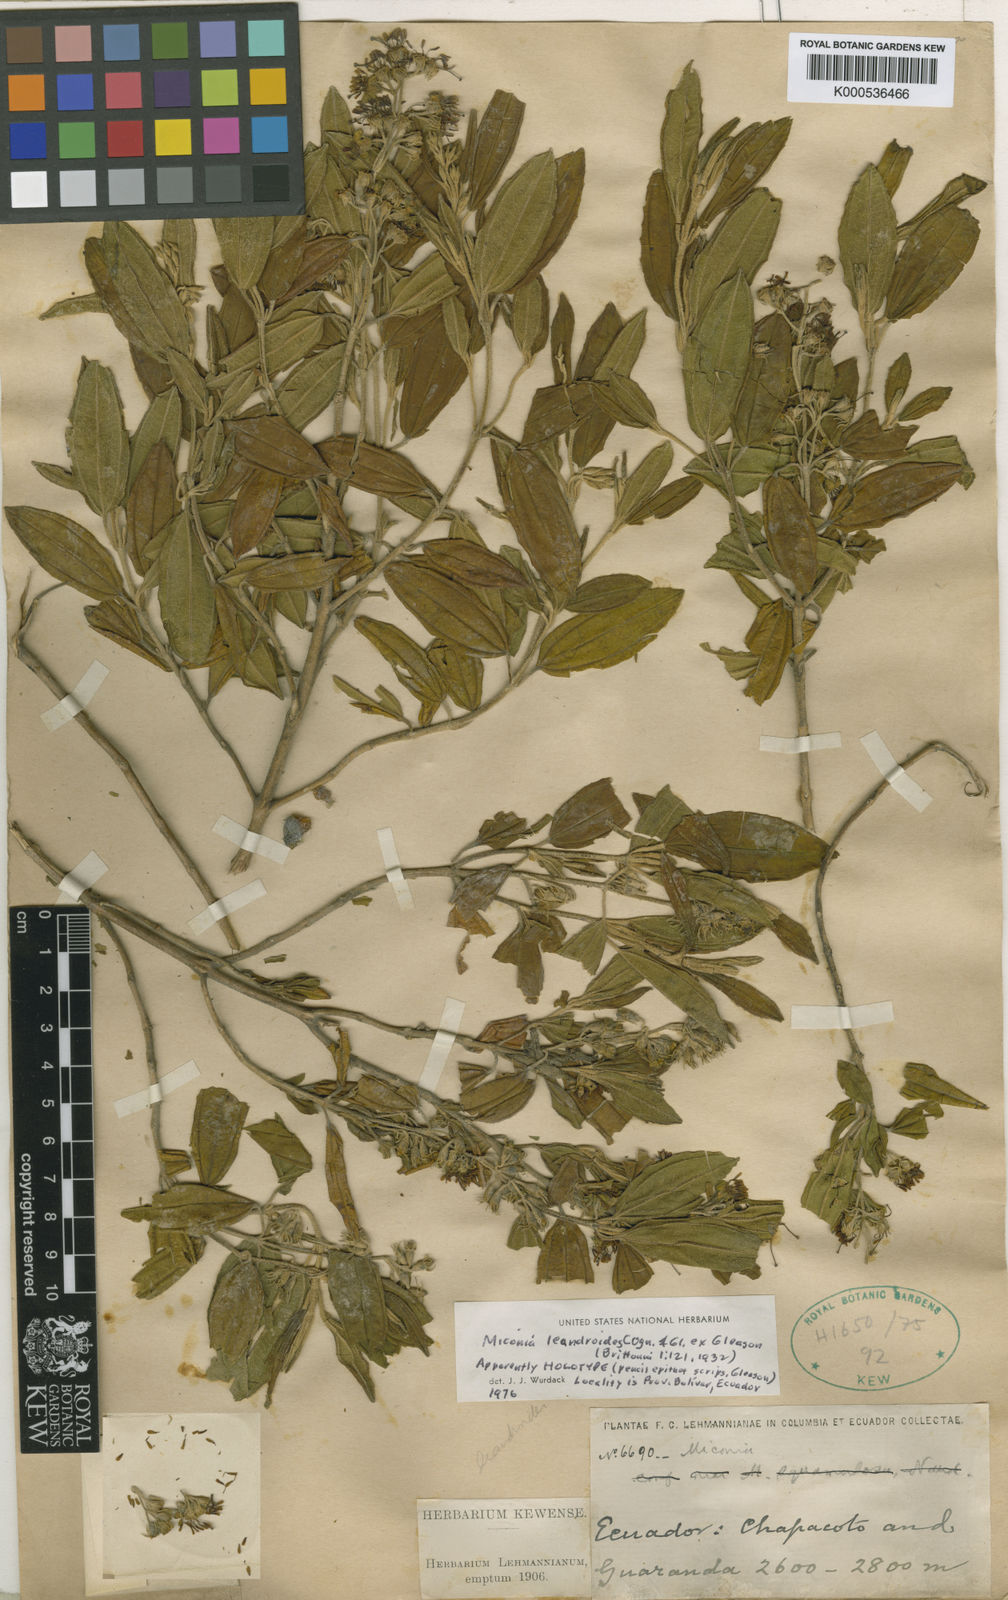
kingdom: Plantae
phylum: Tracheophyta
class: Magnoliopsida
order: Myrtales
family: Melastomataceae
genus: Miconia
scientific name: Miconia leandroides
